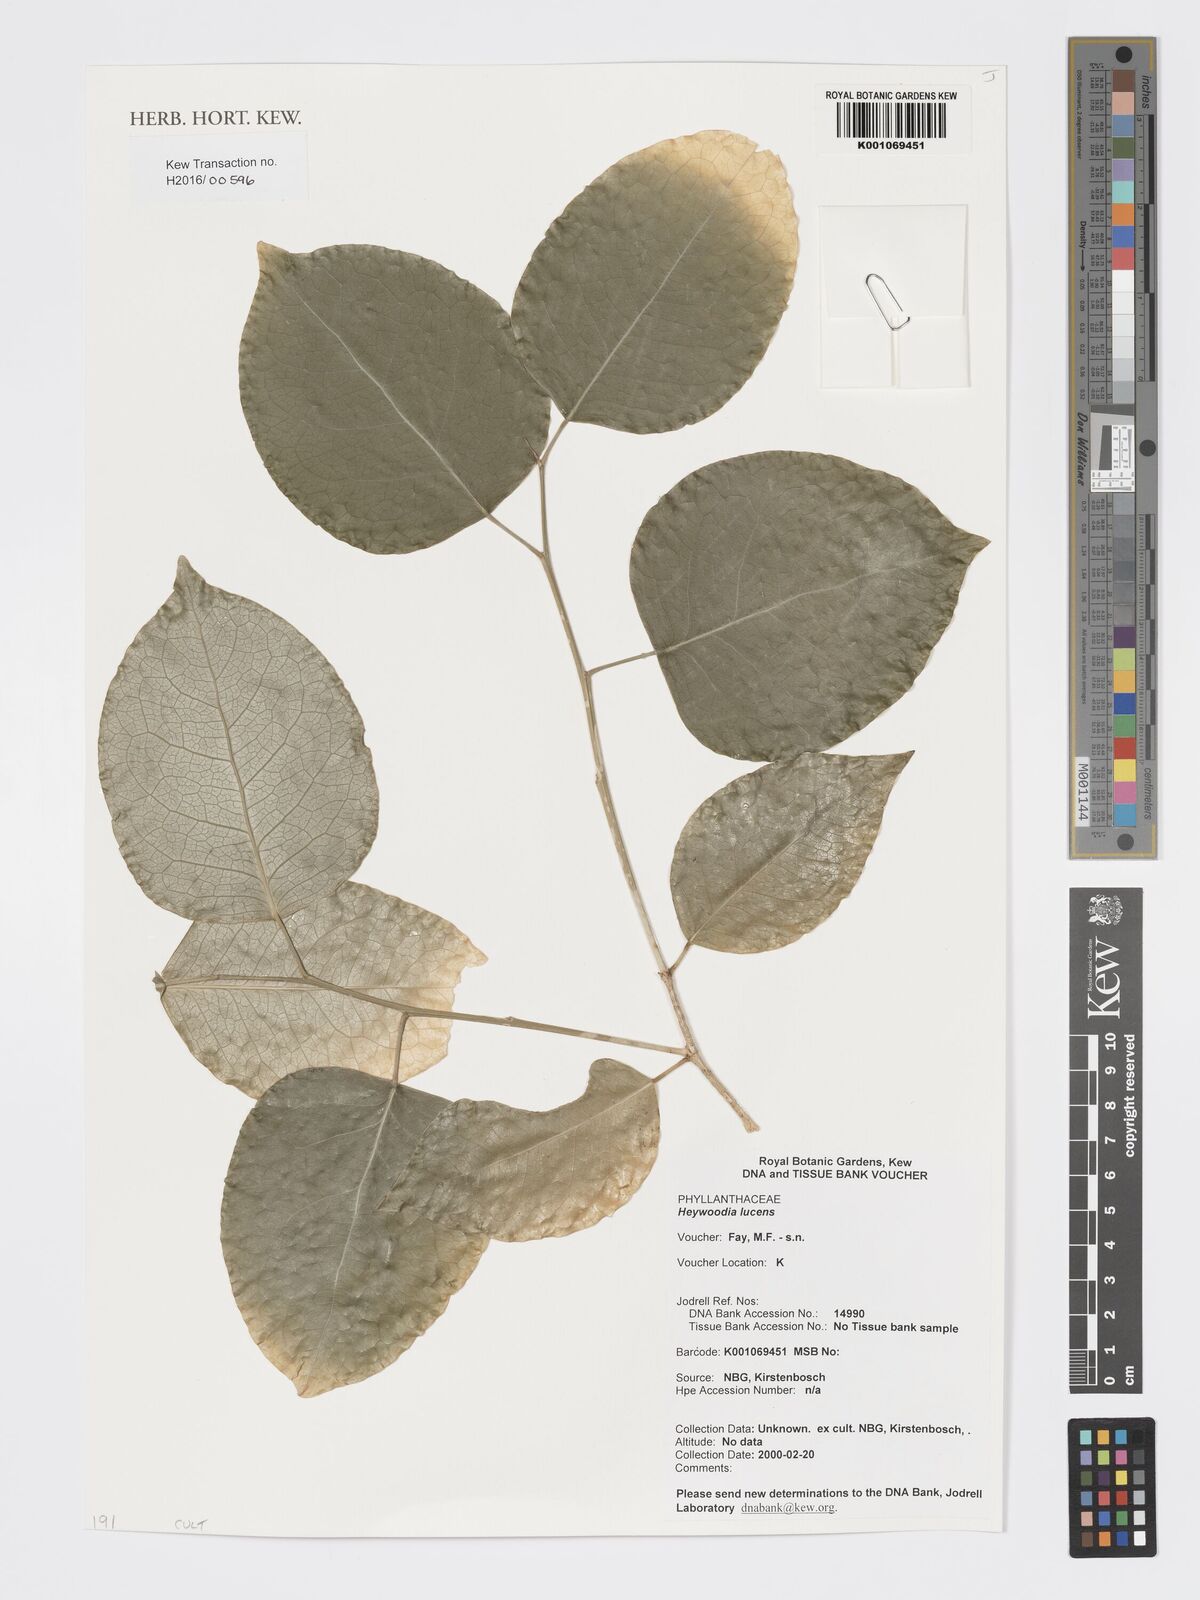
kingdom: Plantae
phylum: Tracheophyta
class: Magnoliopsida
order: Malpighiales
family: Phyllanthaceae
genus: Heywoodia
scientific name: Heywoodia lucens
